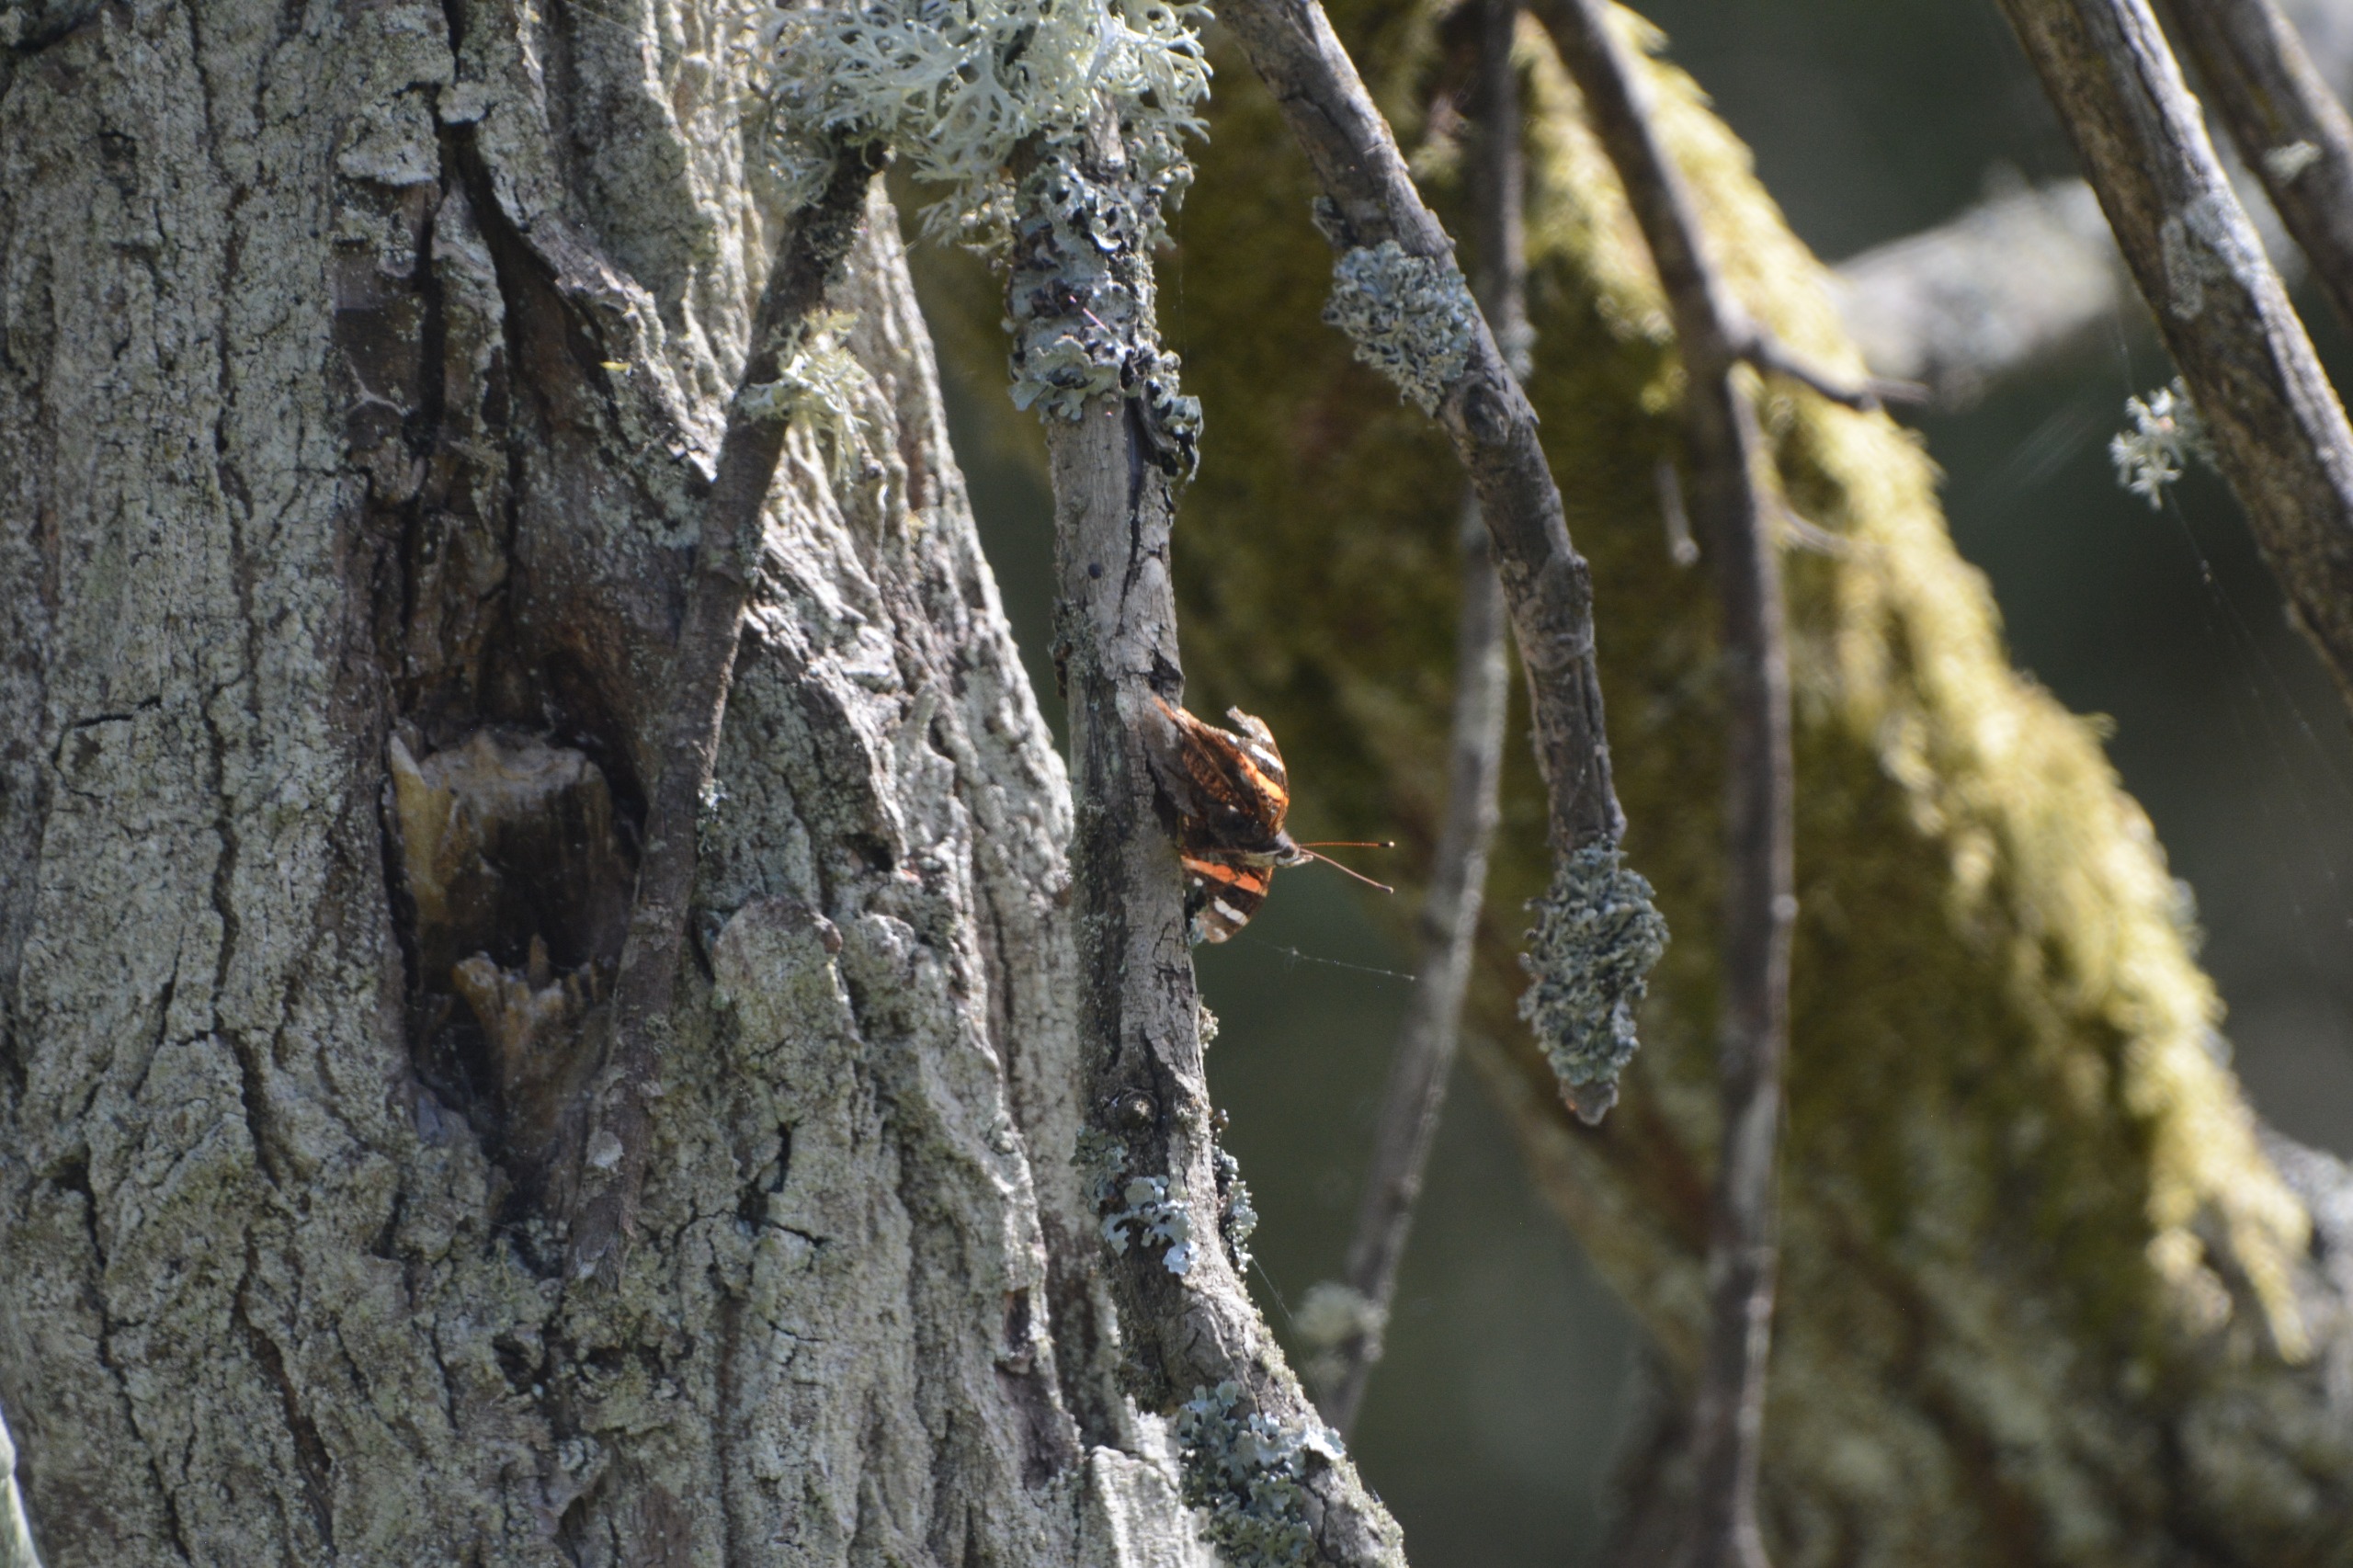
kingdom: Animalia
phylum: Arthropoda
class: Insecta
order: Lepidoptera
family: Nymphalidae
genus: Vanessa
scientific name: Vanessa atalanta
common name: Admiral
